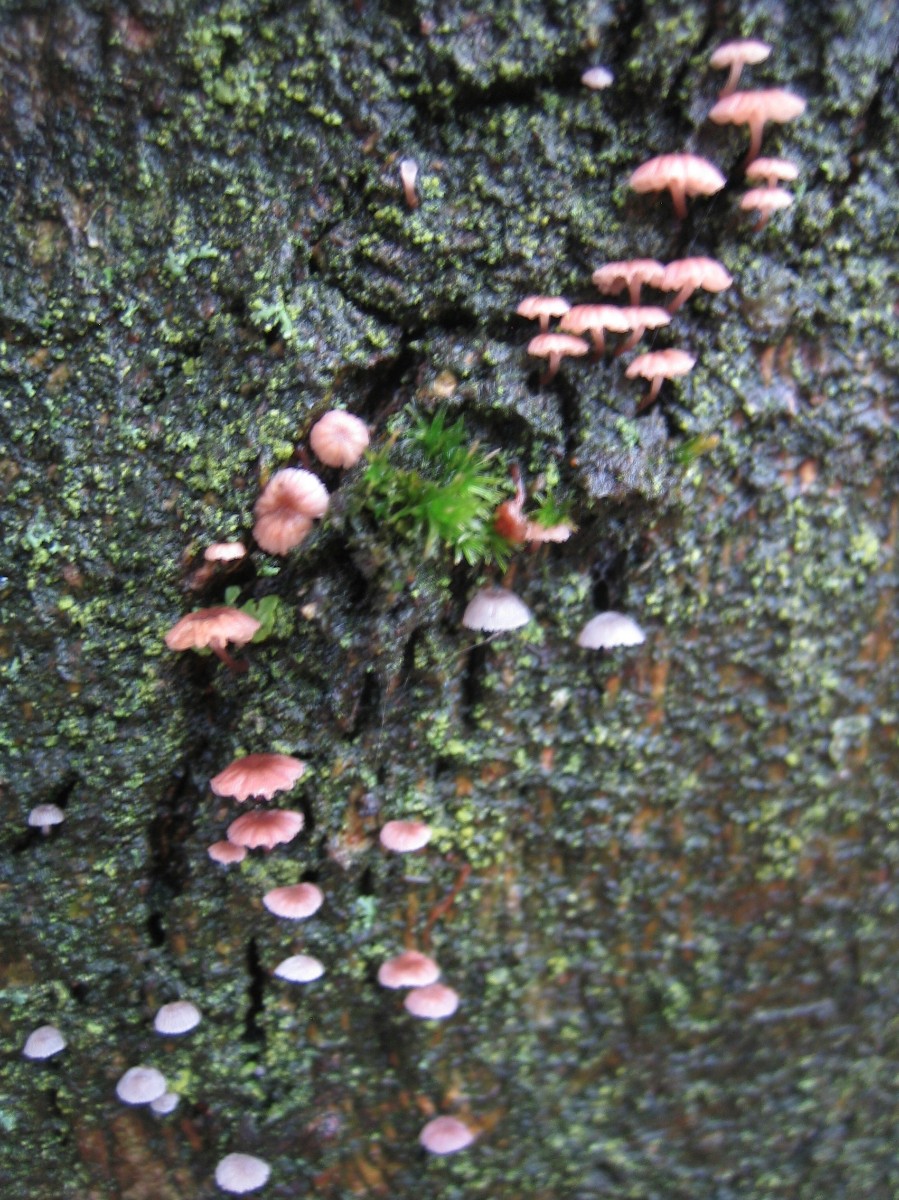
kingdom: Fungi
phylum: Basidiomycota
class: Agaricomycetes
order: Agaricales
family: Mycenaceae
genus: Mycena
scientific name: Mycena meliigena
